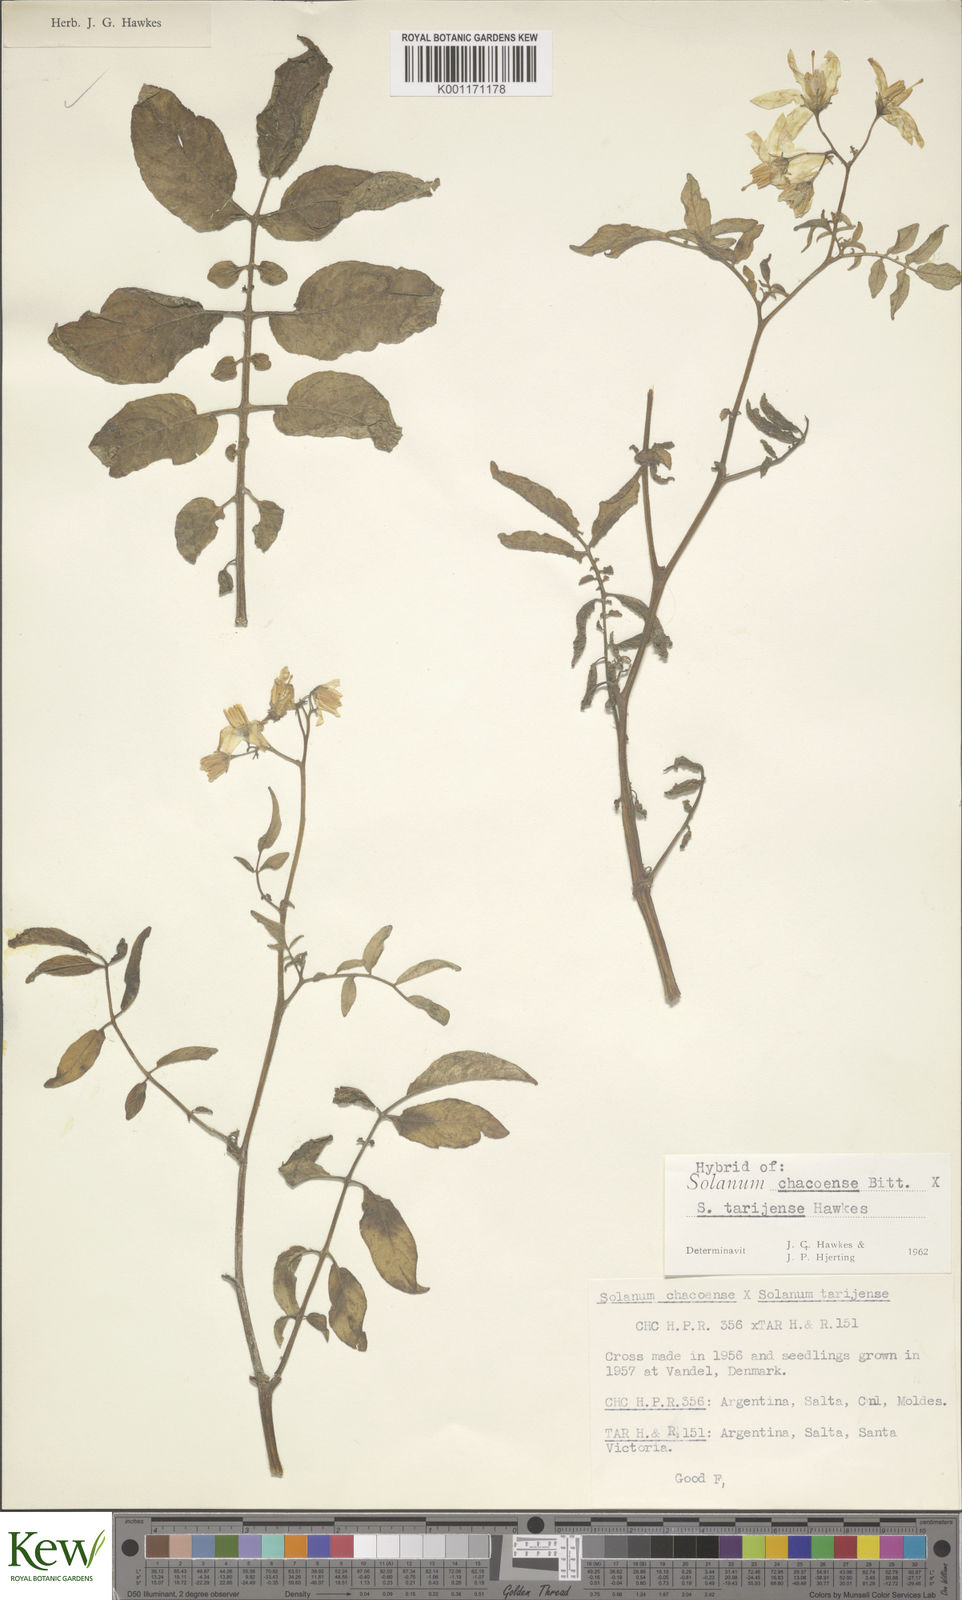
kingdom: Plantae
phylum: Tracheophyta
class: Magnoliopsida
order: Solanales
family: Solanaceae
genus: Solanum
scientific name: Solanum chacoense
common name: Chaco potato
